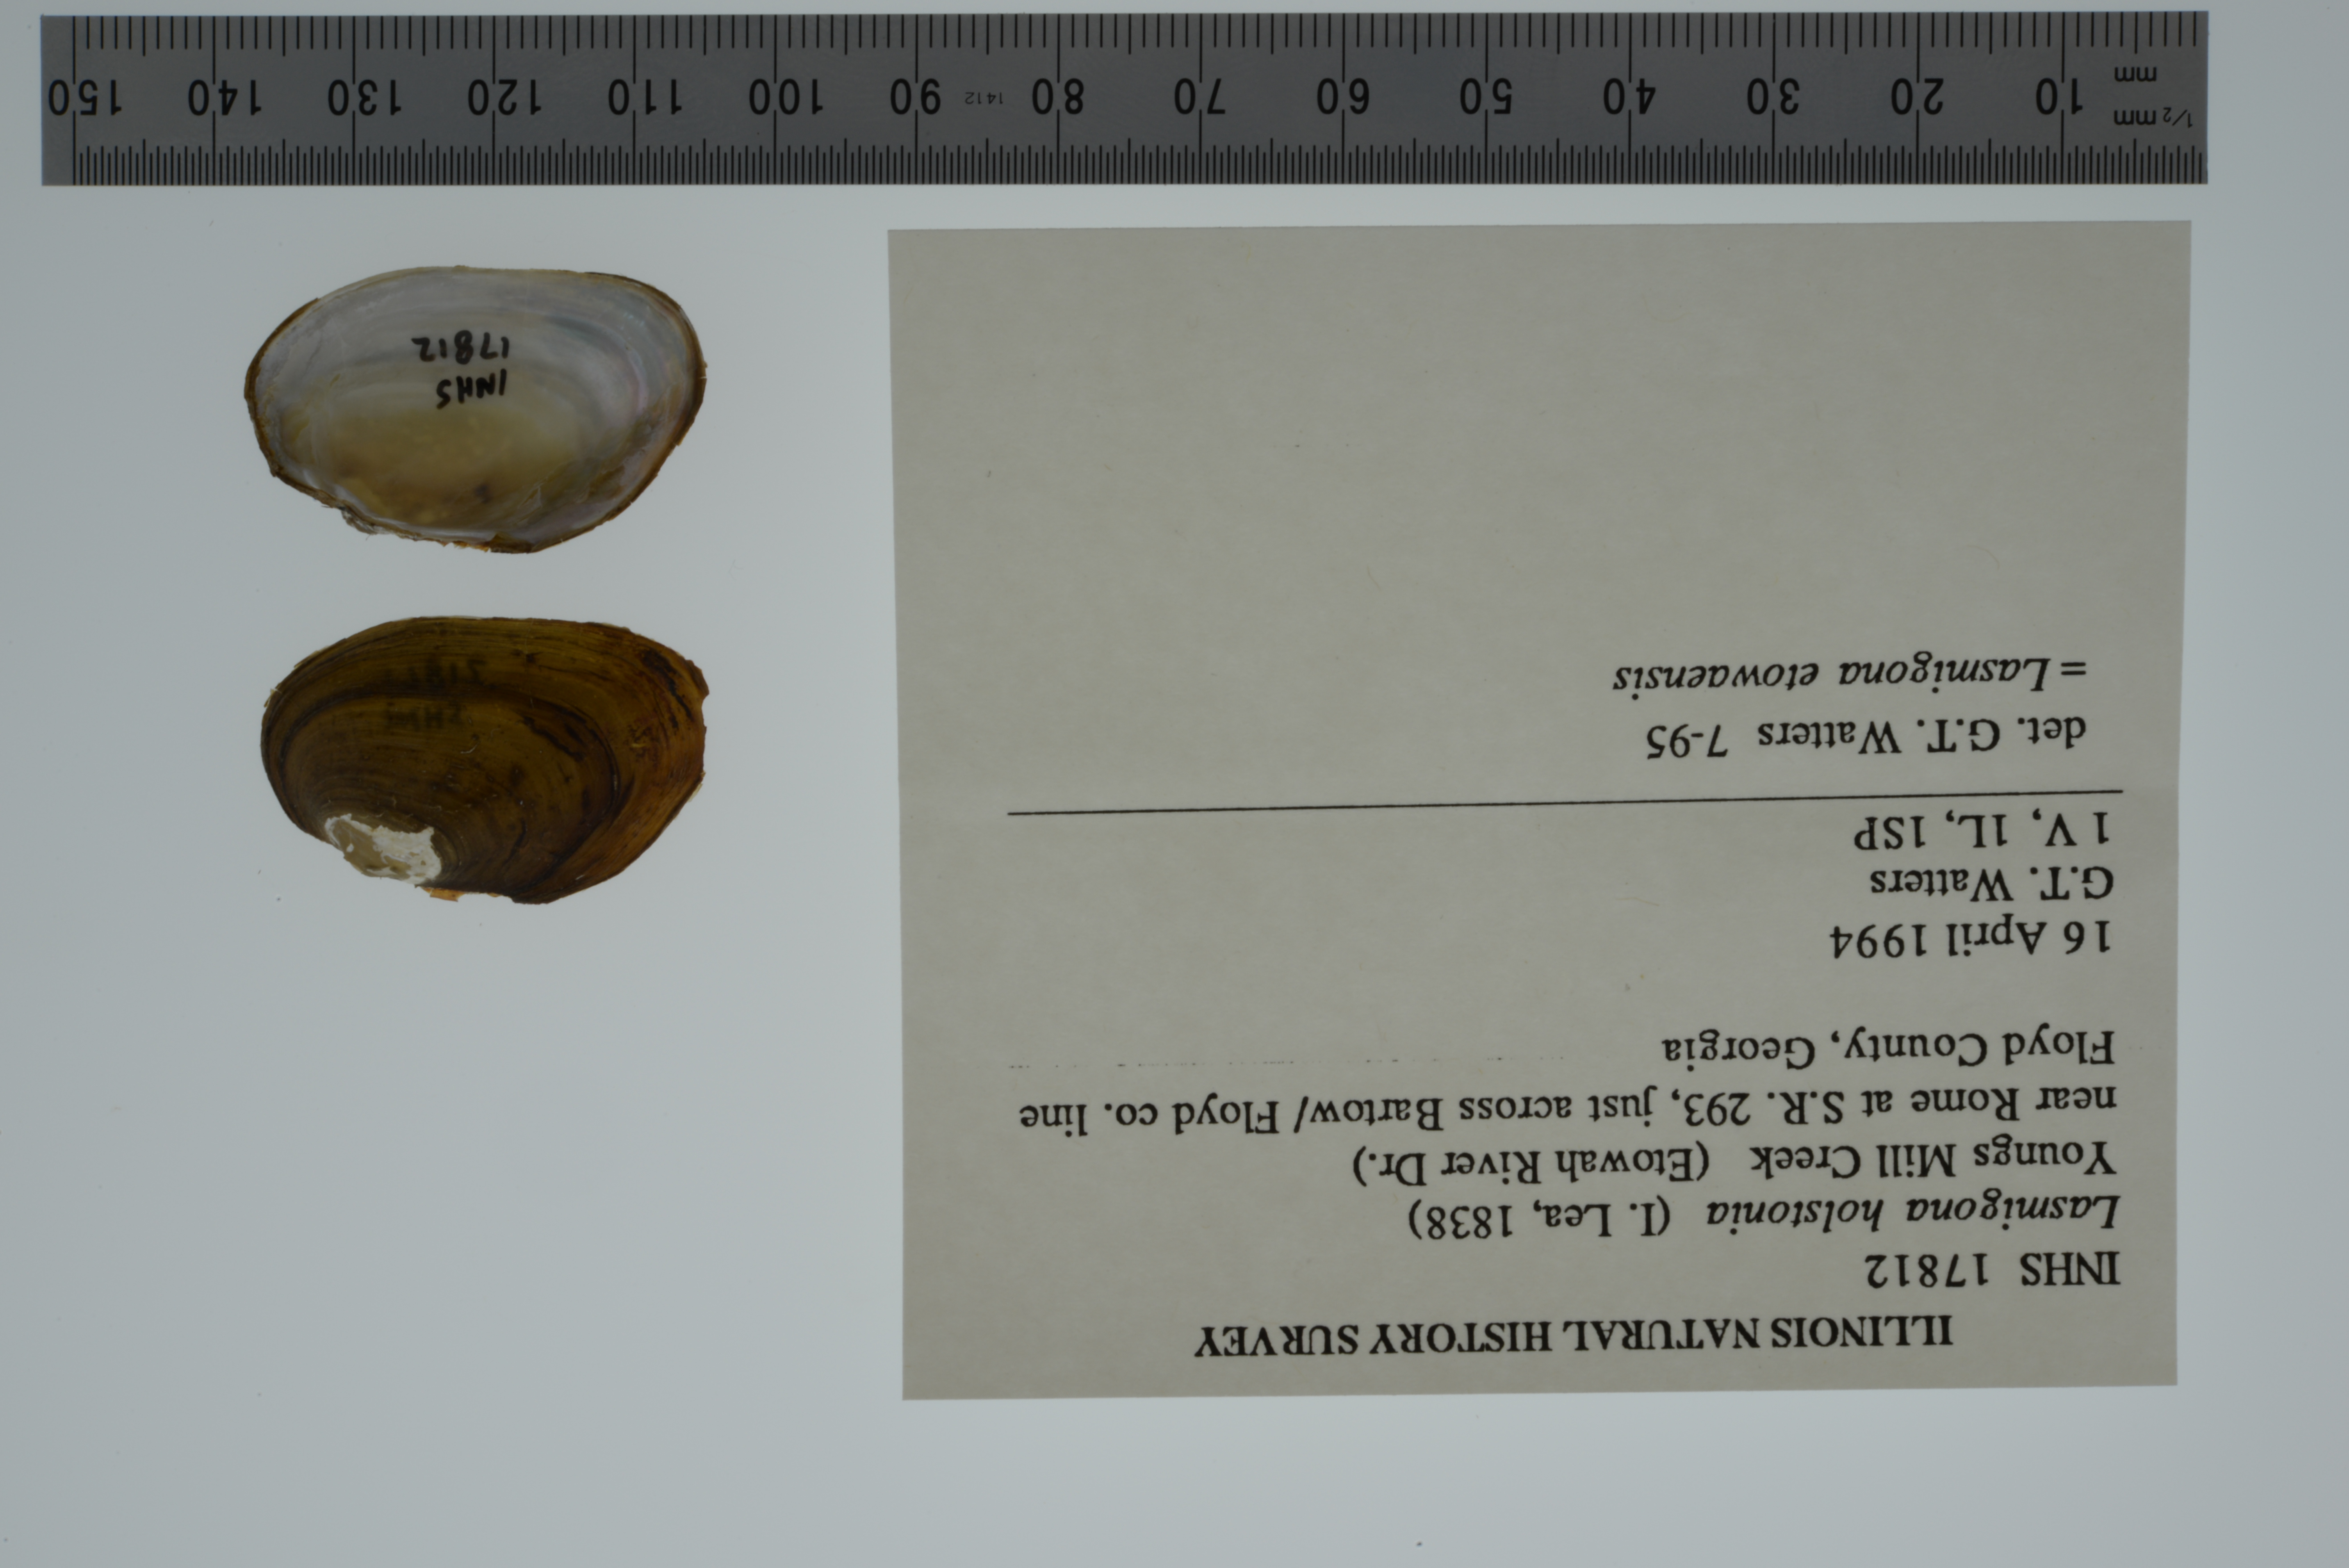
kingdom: Animalia
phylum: Mollusca
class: Bivalvia
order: Unionida
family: Unionidae
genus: Lasmigona
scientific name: Lasmigona holstonia
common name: Tennessee heelsplitter
